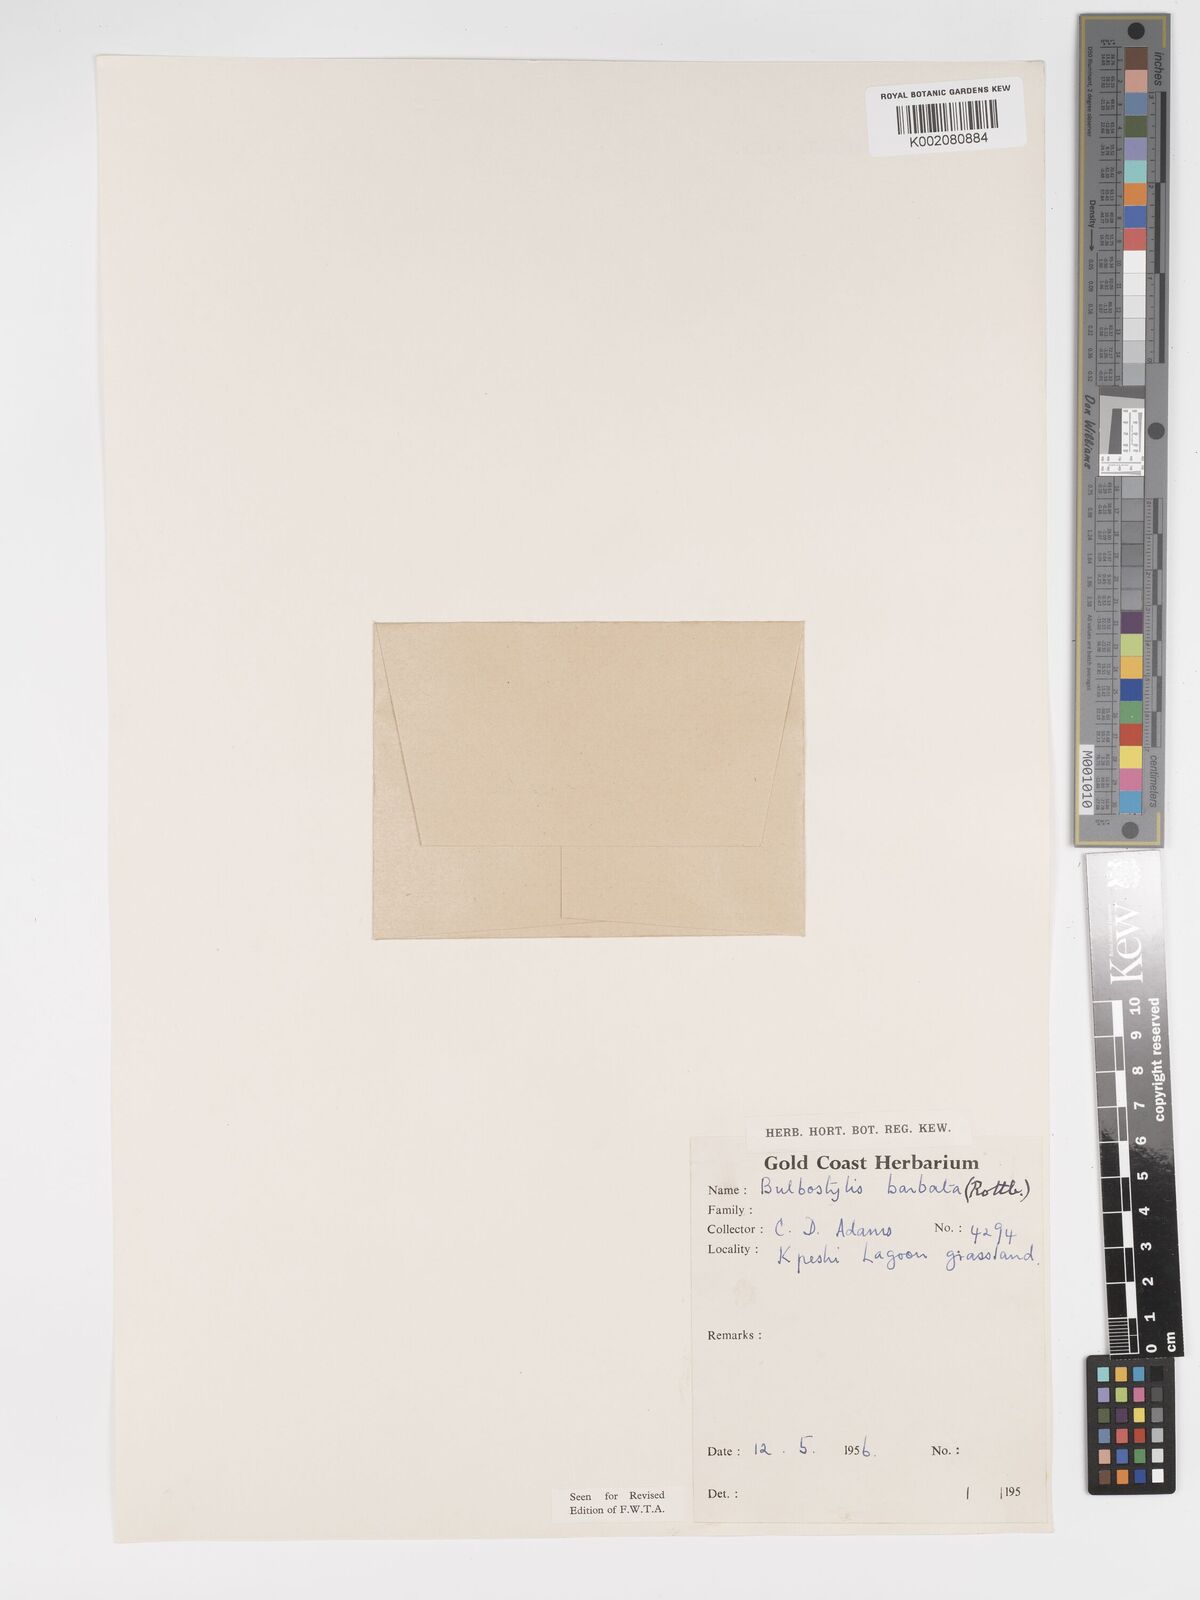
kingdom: Plantae
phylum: Tracheophyta
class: Liliopsida
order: Poales
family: Cyperaceae
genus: Bulbostylis
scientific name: Bulbostylis barbata
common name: Watergrass
